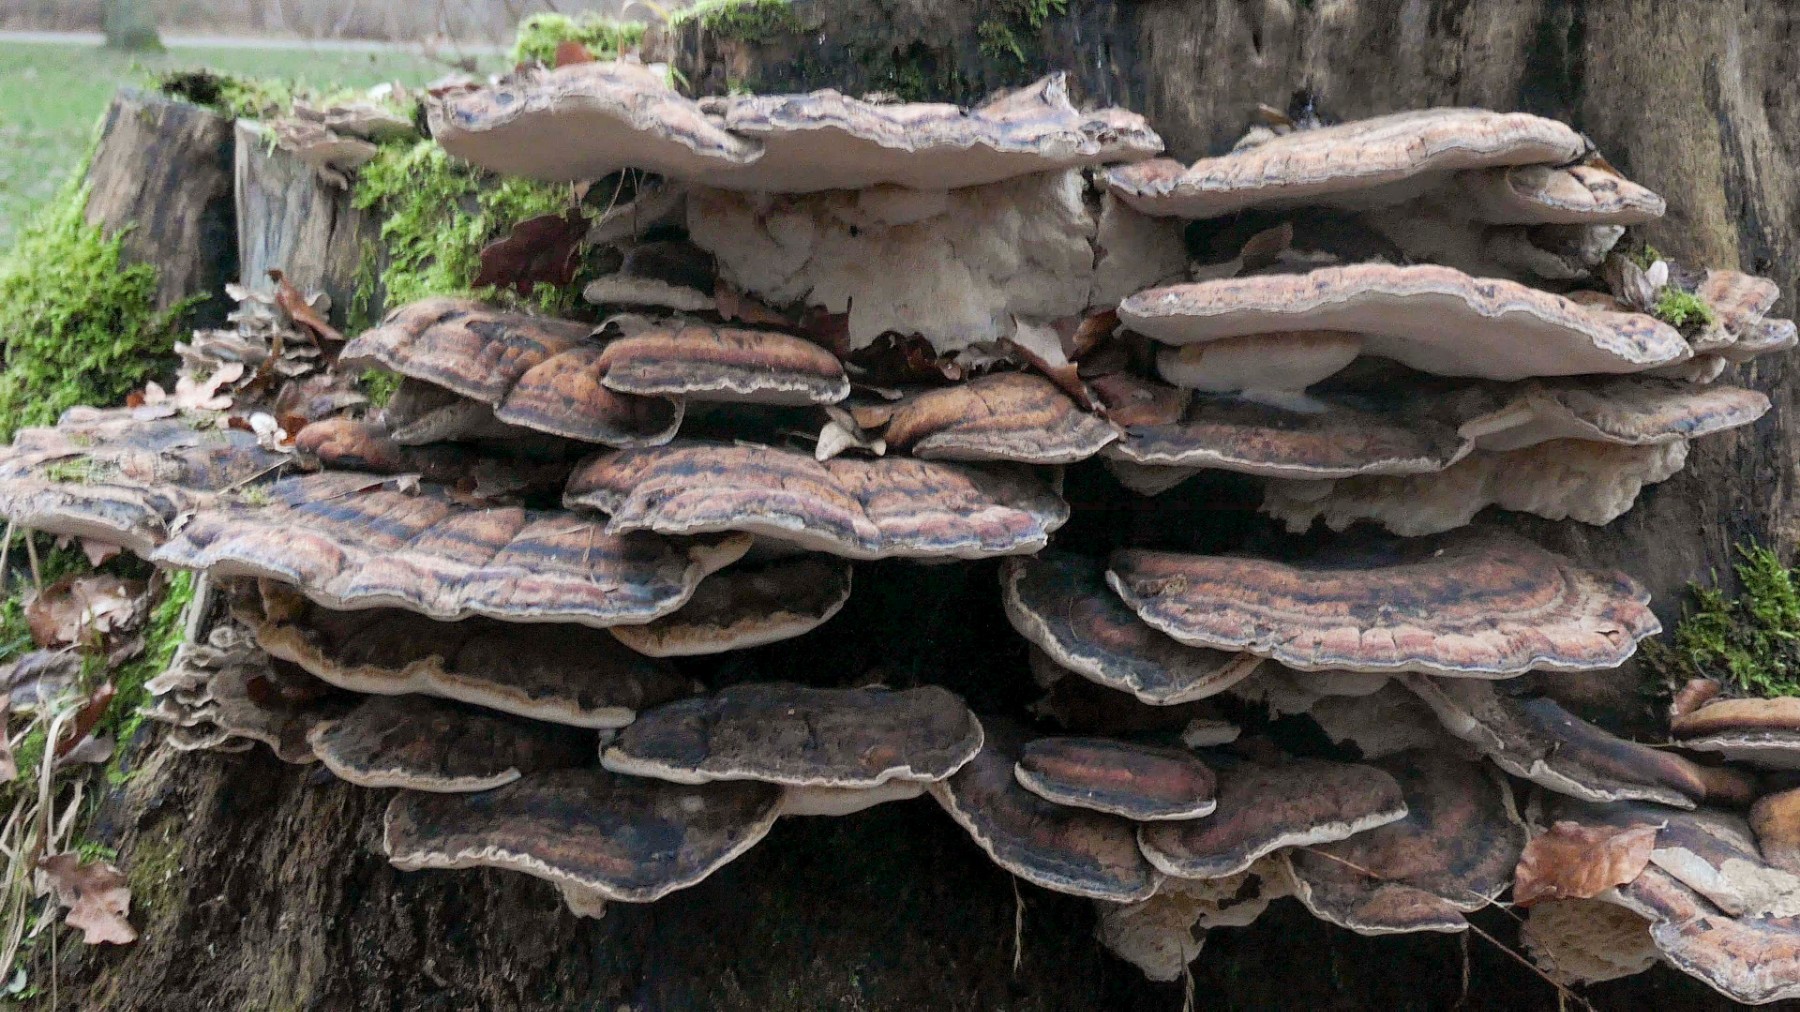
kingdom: Fungi
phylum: Basidiomycota
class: Agaricomycetes
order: Polyporales
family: Ischnodermataceae
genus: Ischnoderma
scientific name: Ischnoderma resinosum
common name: løv-tjæreporesvamp
